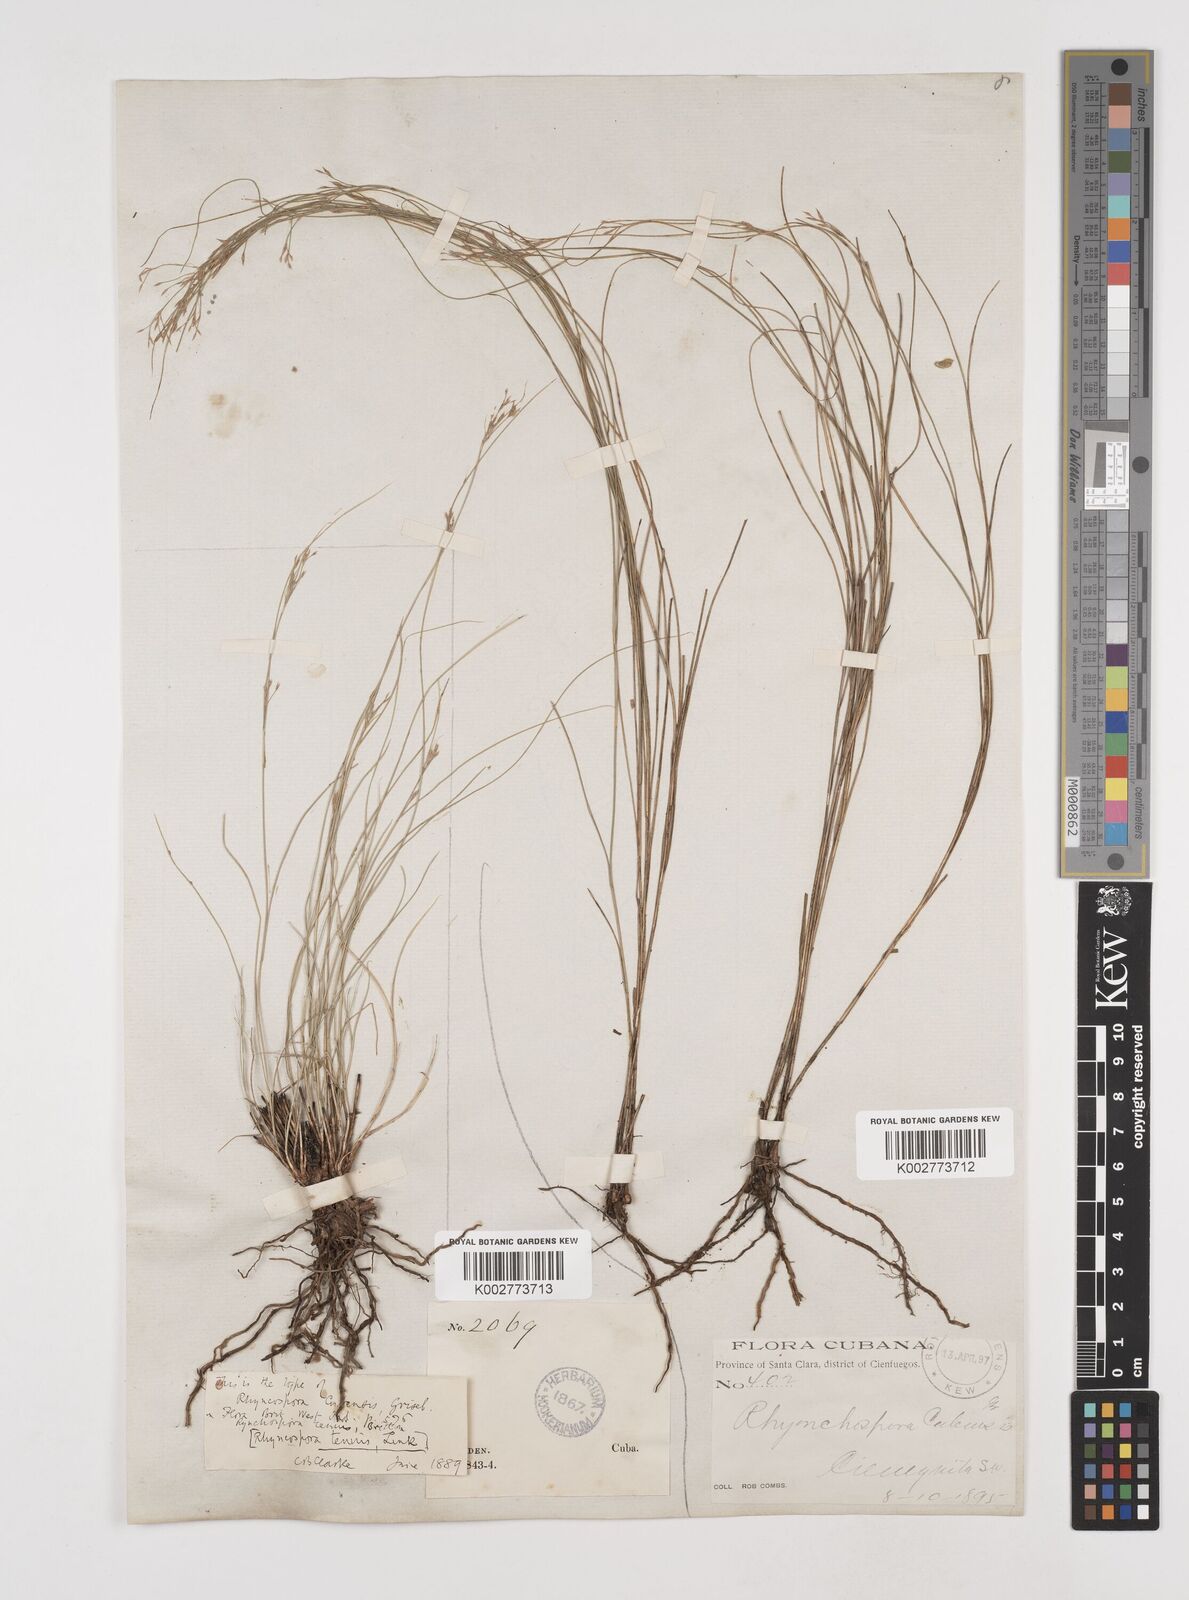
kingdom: Plantae
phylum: Tracheophyta
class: Liliopsida
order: Poales
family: Cyperaceae
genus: Rhynchospora
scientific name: Rhynchospora tenuis
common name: Quill beaksedge
